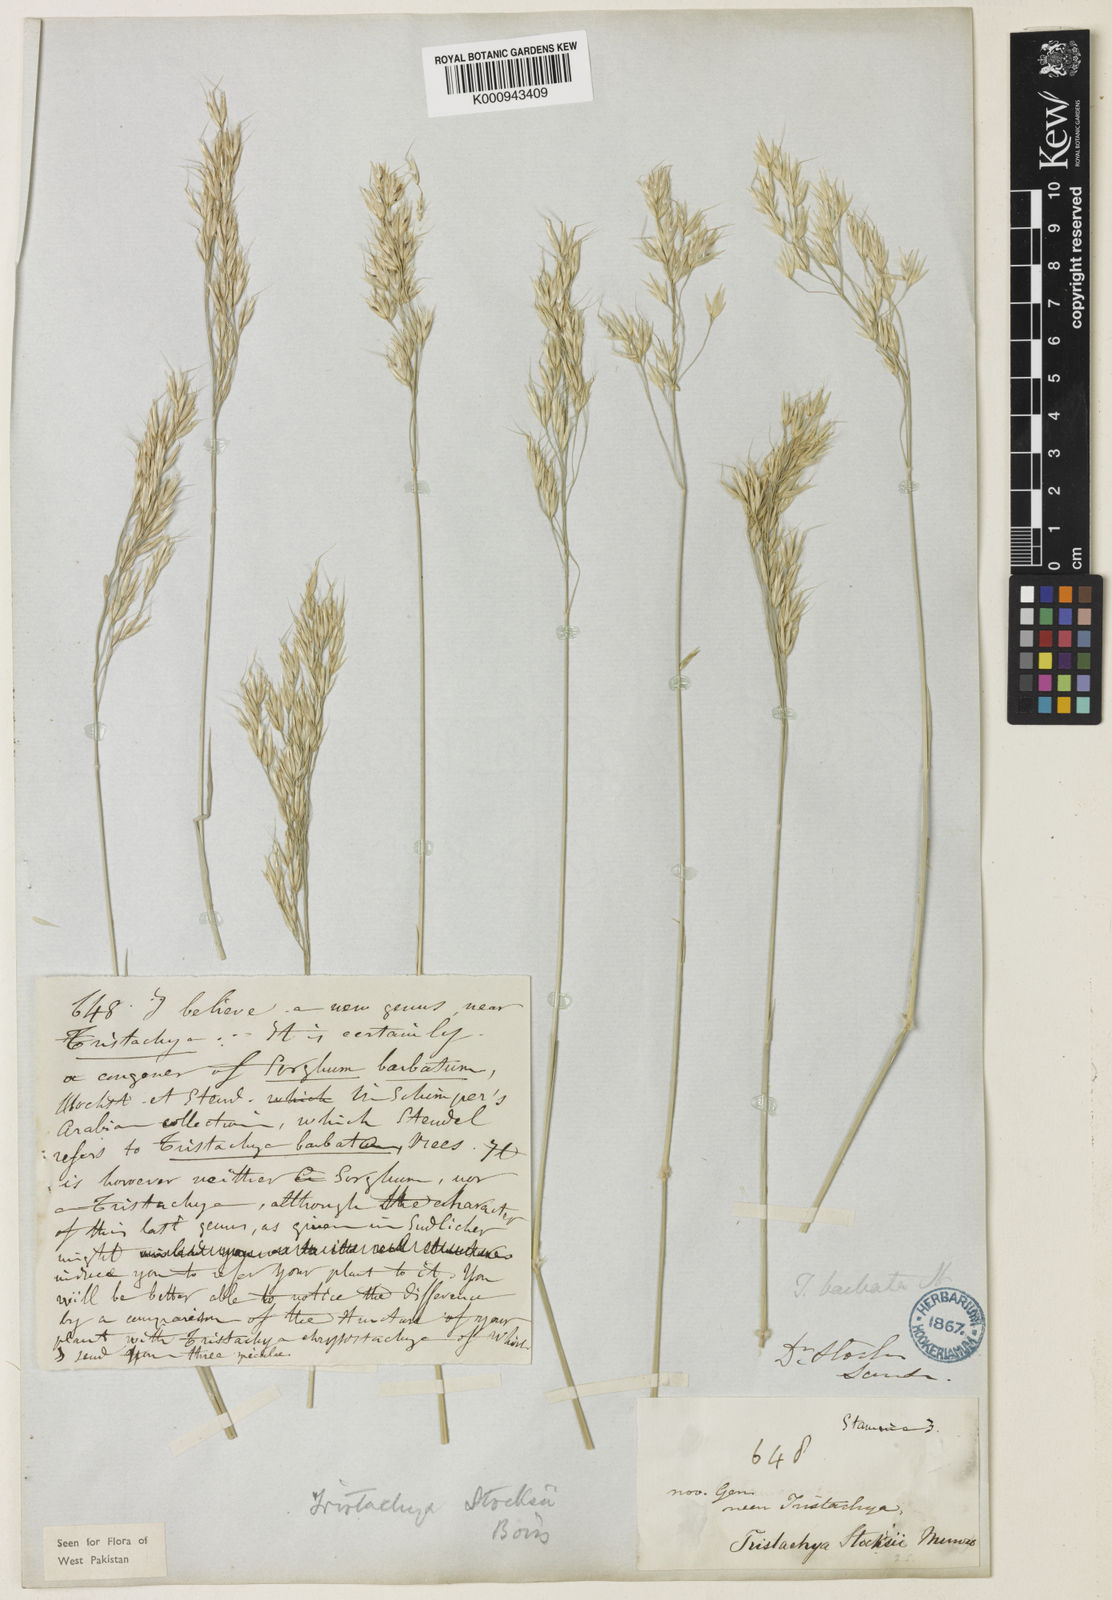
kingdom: Plantae
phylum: Tracheophyta
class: Liliopsida
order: Poales
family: Poaceae
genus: Danthoniopsis
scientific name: Danthoniopsis stocksii
